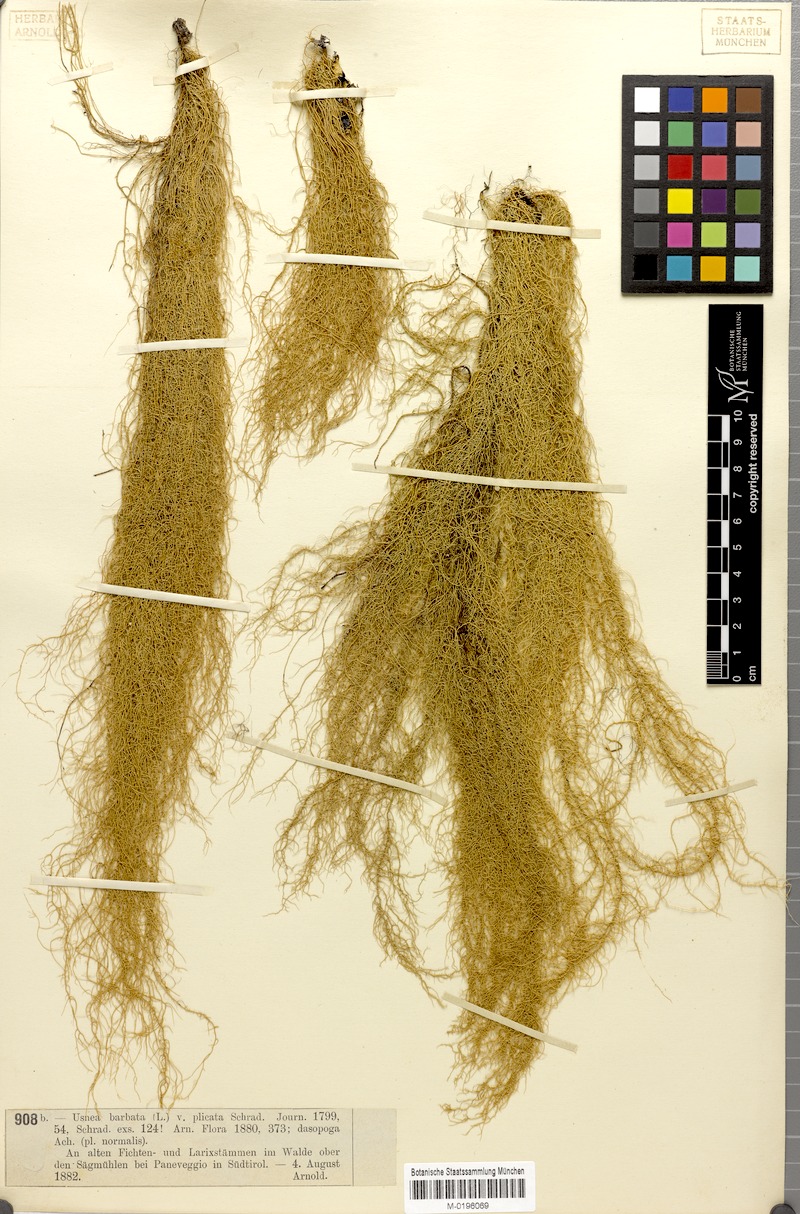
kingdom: Fungi
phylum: Ascomycota
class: Lecanoromycetes
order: Lecanorales
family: Parmeliaceae
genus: Usnea
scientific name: Usnea dasopoga
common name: Fishbone beard lichen
